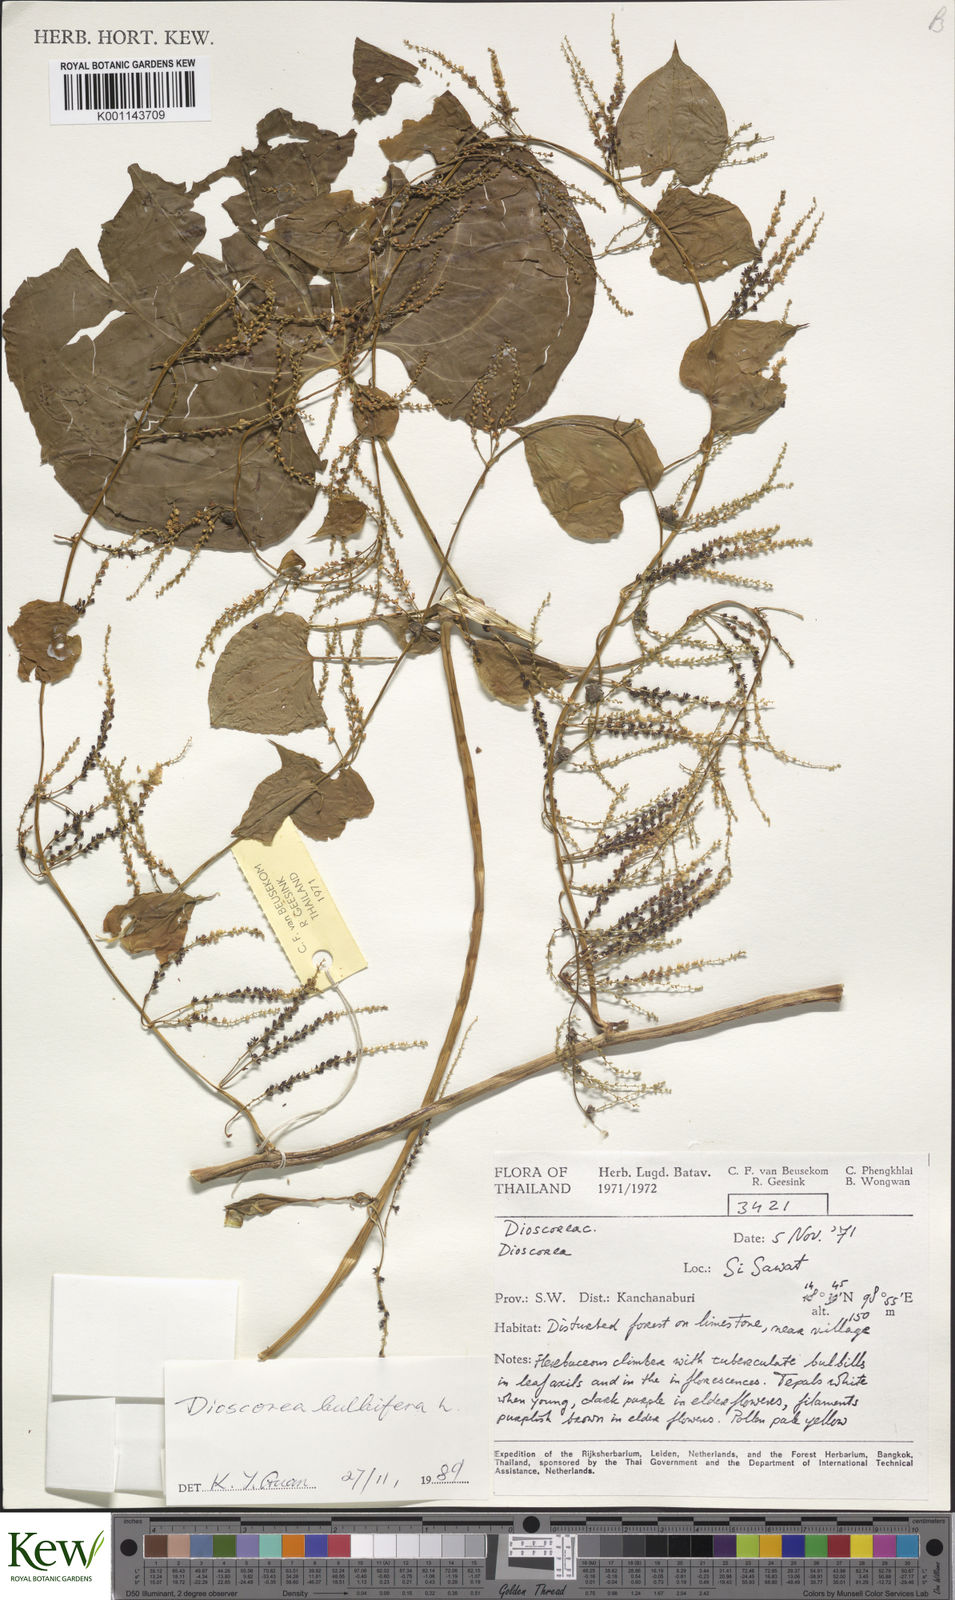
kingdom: Plantae
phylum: Tracheophyta
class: Liliopsida
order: Dioscoreales
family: Dioscoreaceae
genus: Dioscorea
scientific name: Dioscorea bulbifera
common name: Air yam
